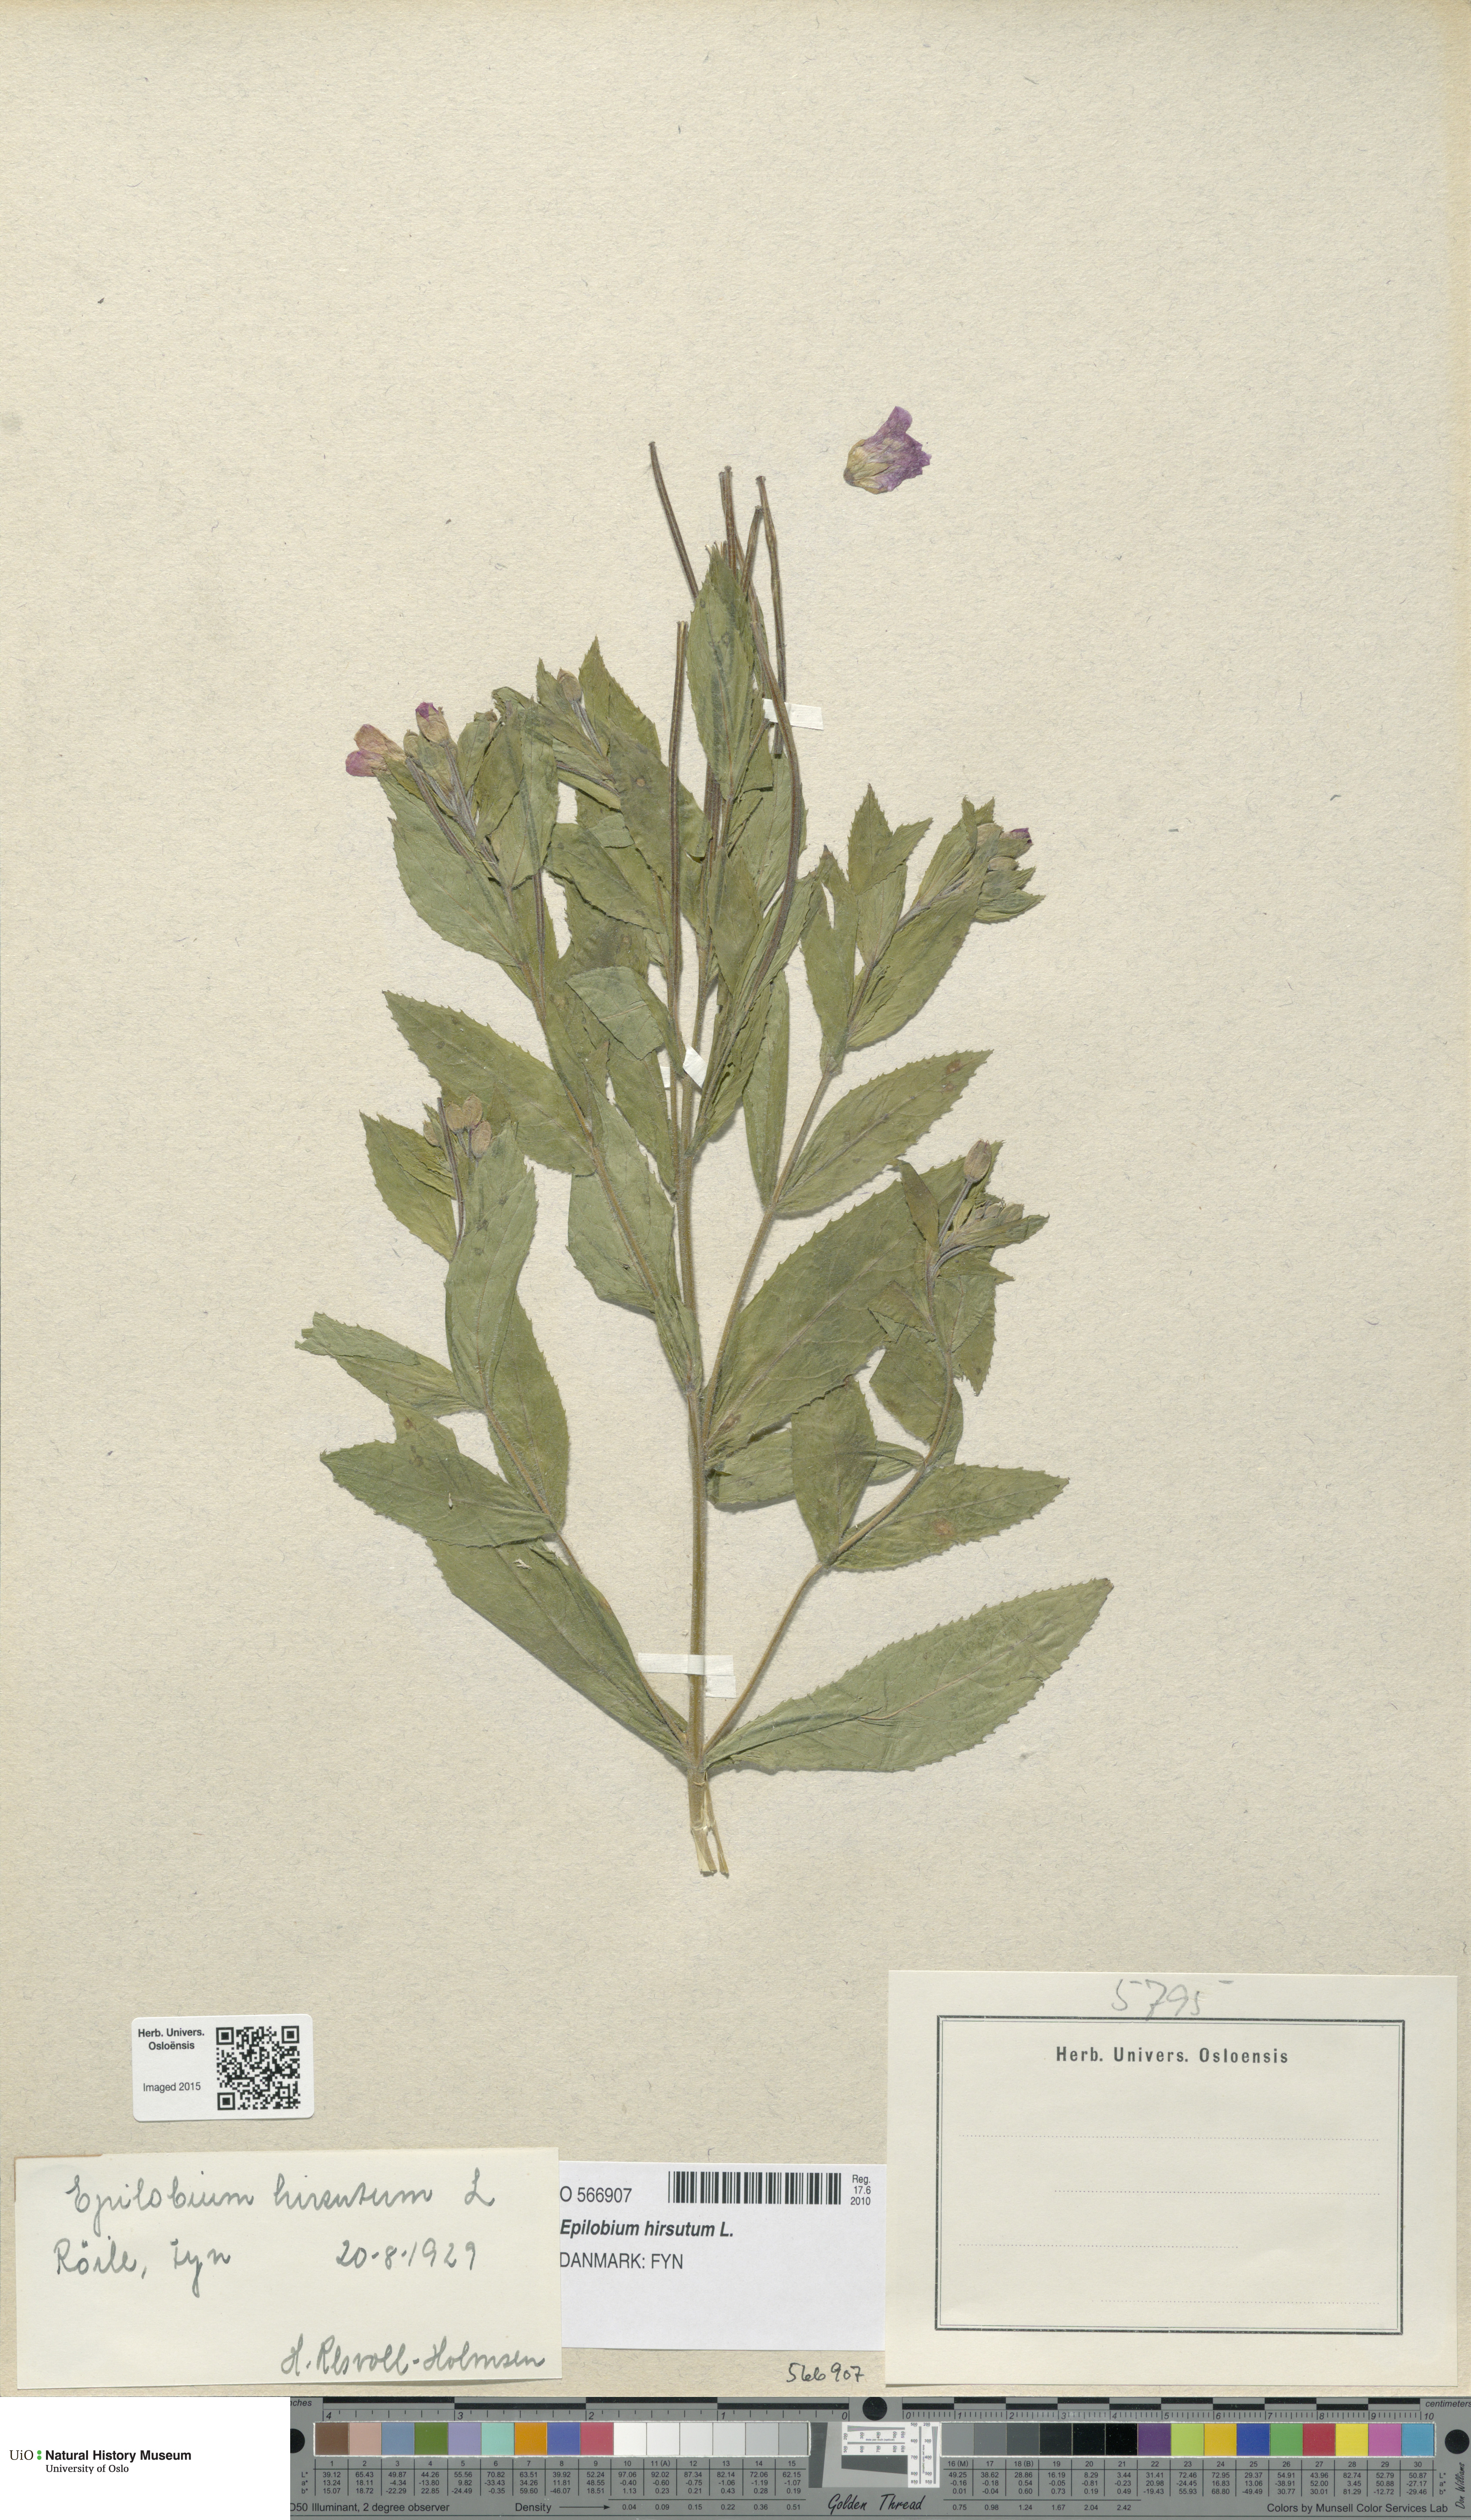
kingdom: Plantae
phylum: Tracheophyta
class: Magnoliopsida
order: Myrtales
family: Onagraceae
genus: Epilobium
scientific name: Epilobium hirsutum
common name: Great willowherb
